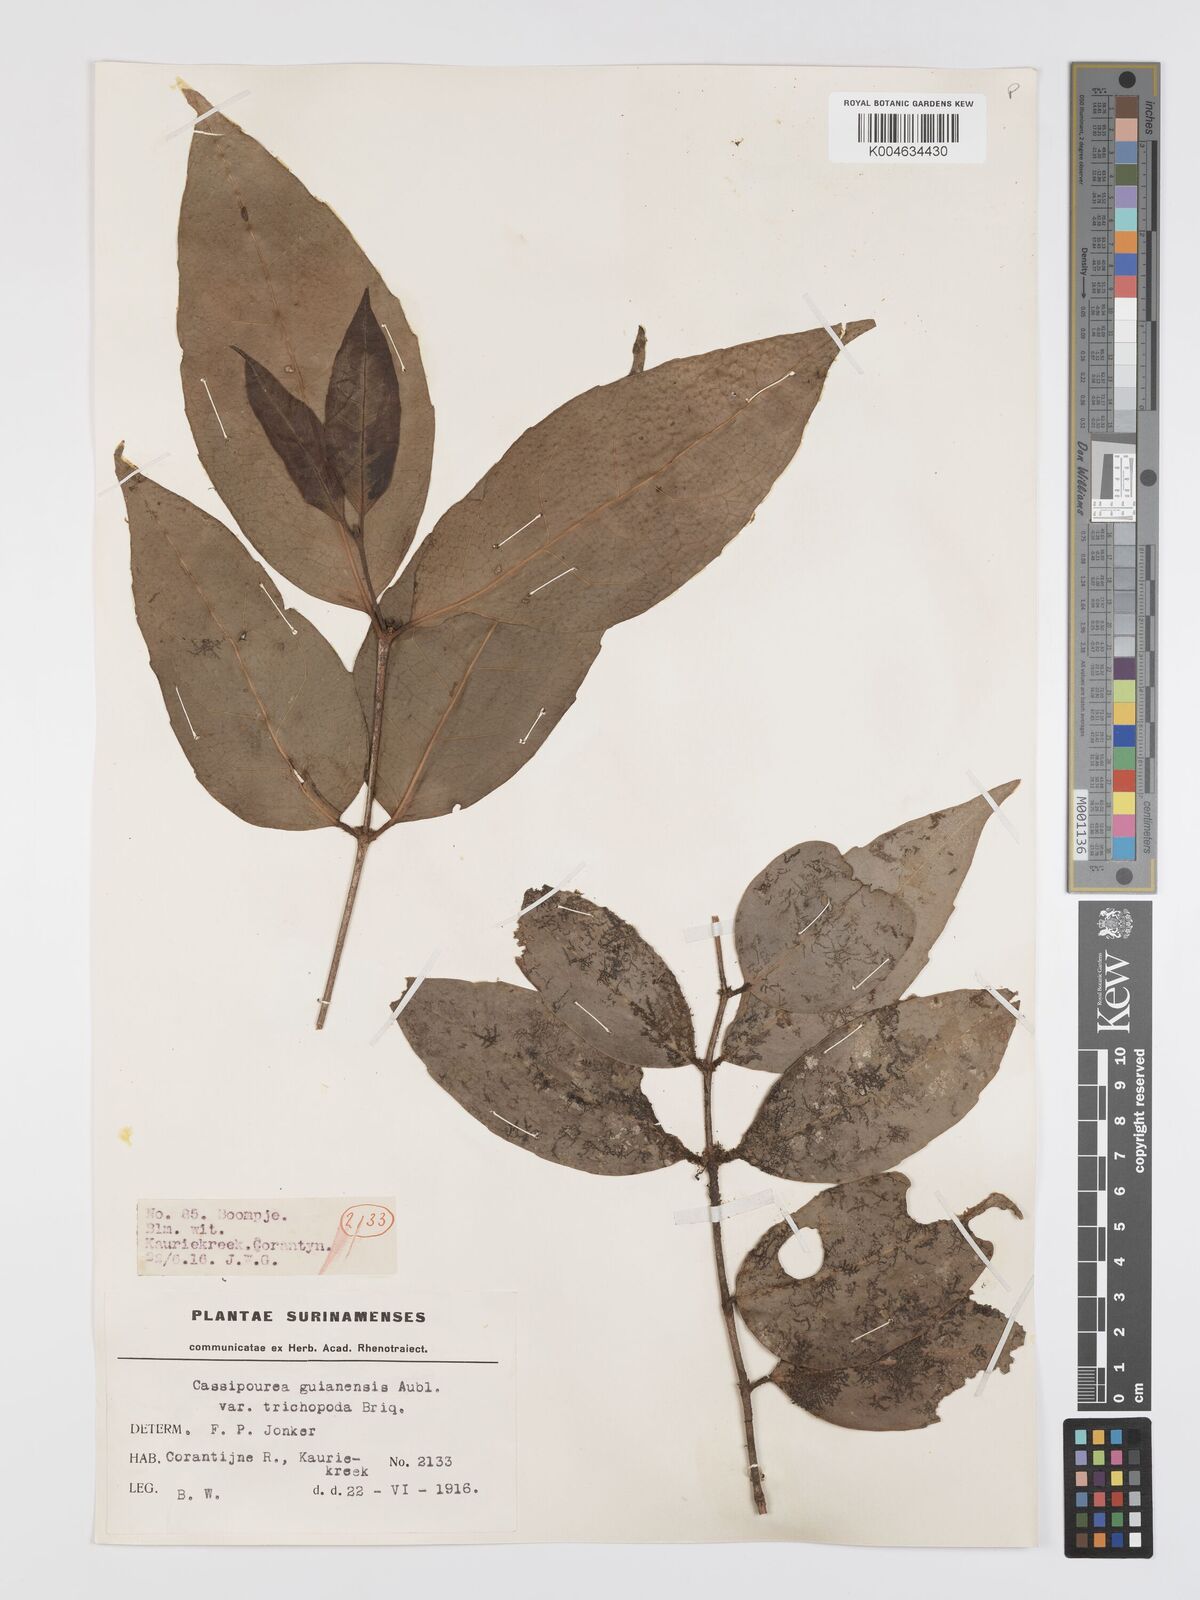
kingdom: Plantae
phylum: Tracheophyta
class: Magnoliopsida
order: Malpighiales
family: Rhizophoraceae
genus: Cassipourea
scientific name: Cassipourea guianensis
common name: Bastard waterwood
